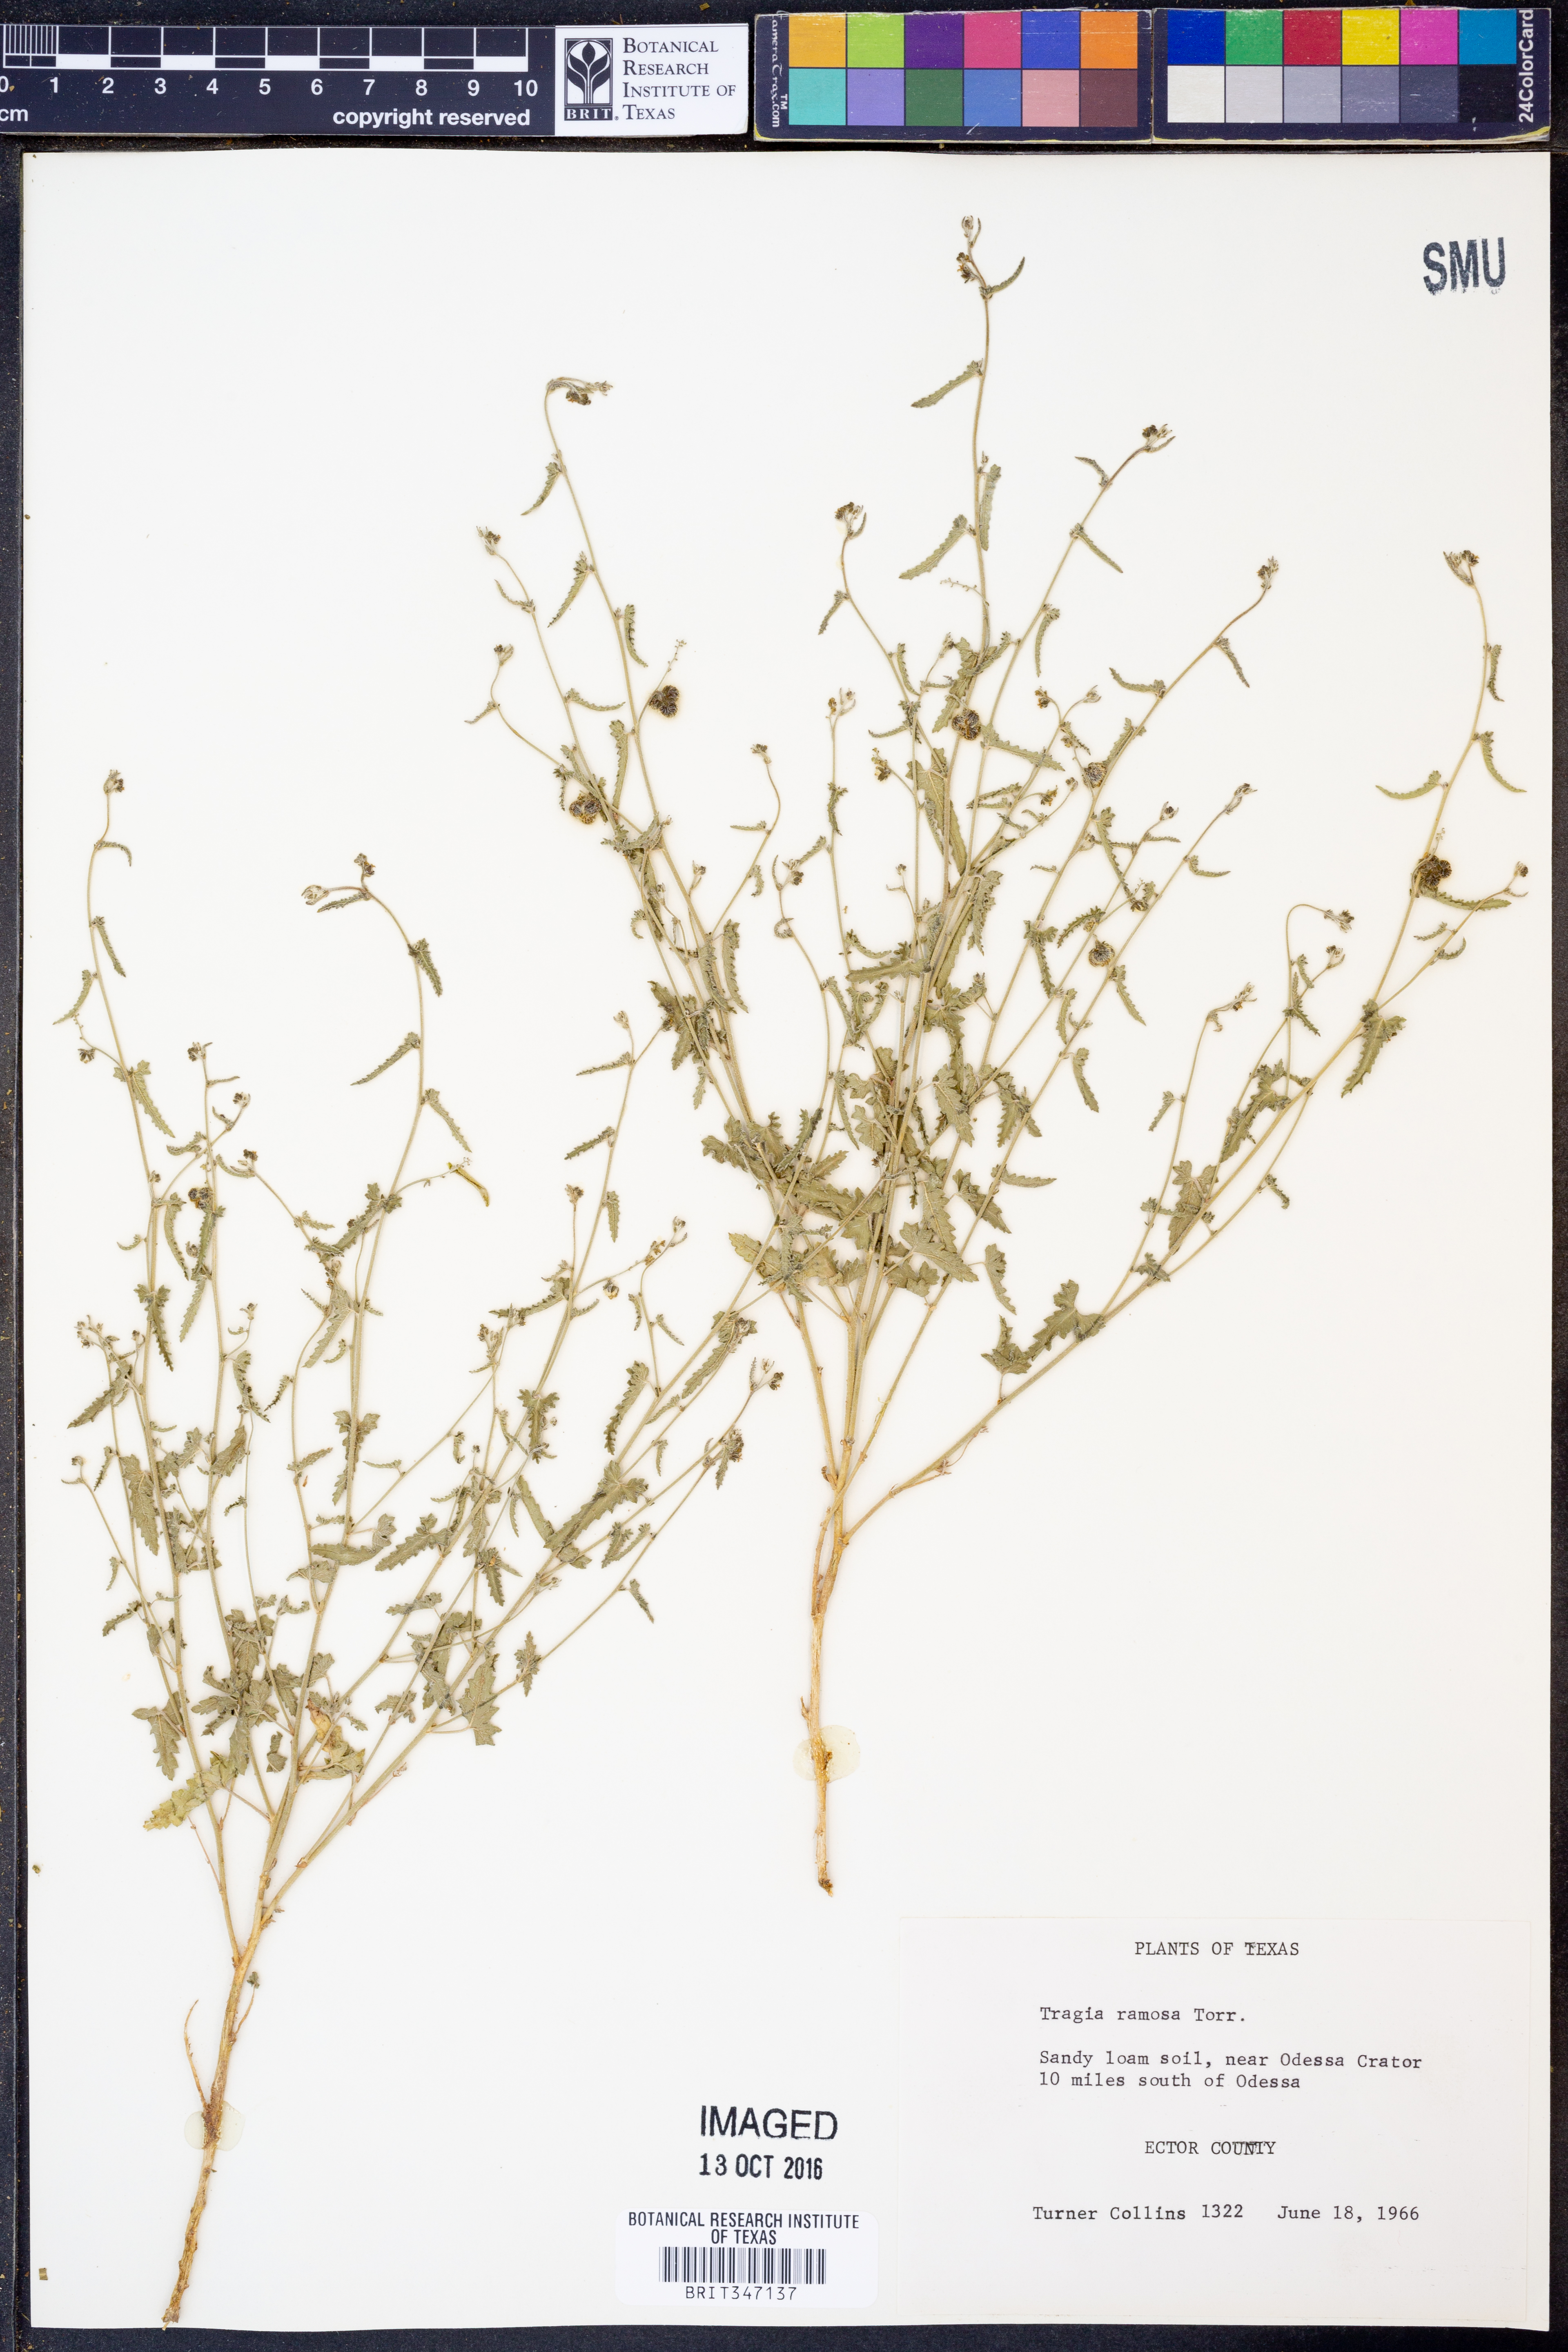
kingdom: Plantae
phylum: Tracheophyta
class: Magnoliopsida
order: Malpighiales
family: Euphorbiaceae
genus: Tragia
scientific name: Tragia ramosa
